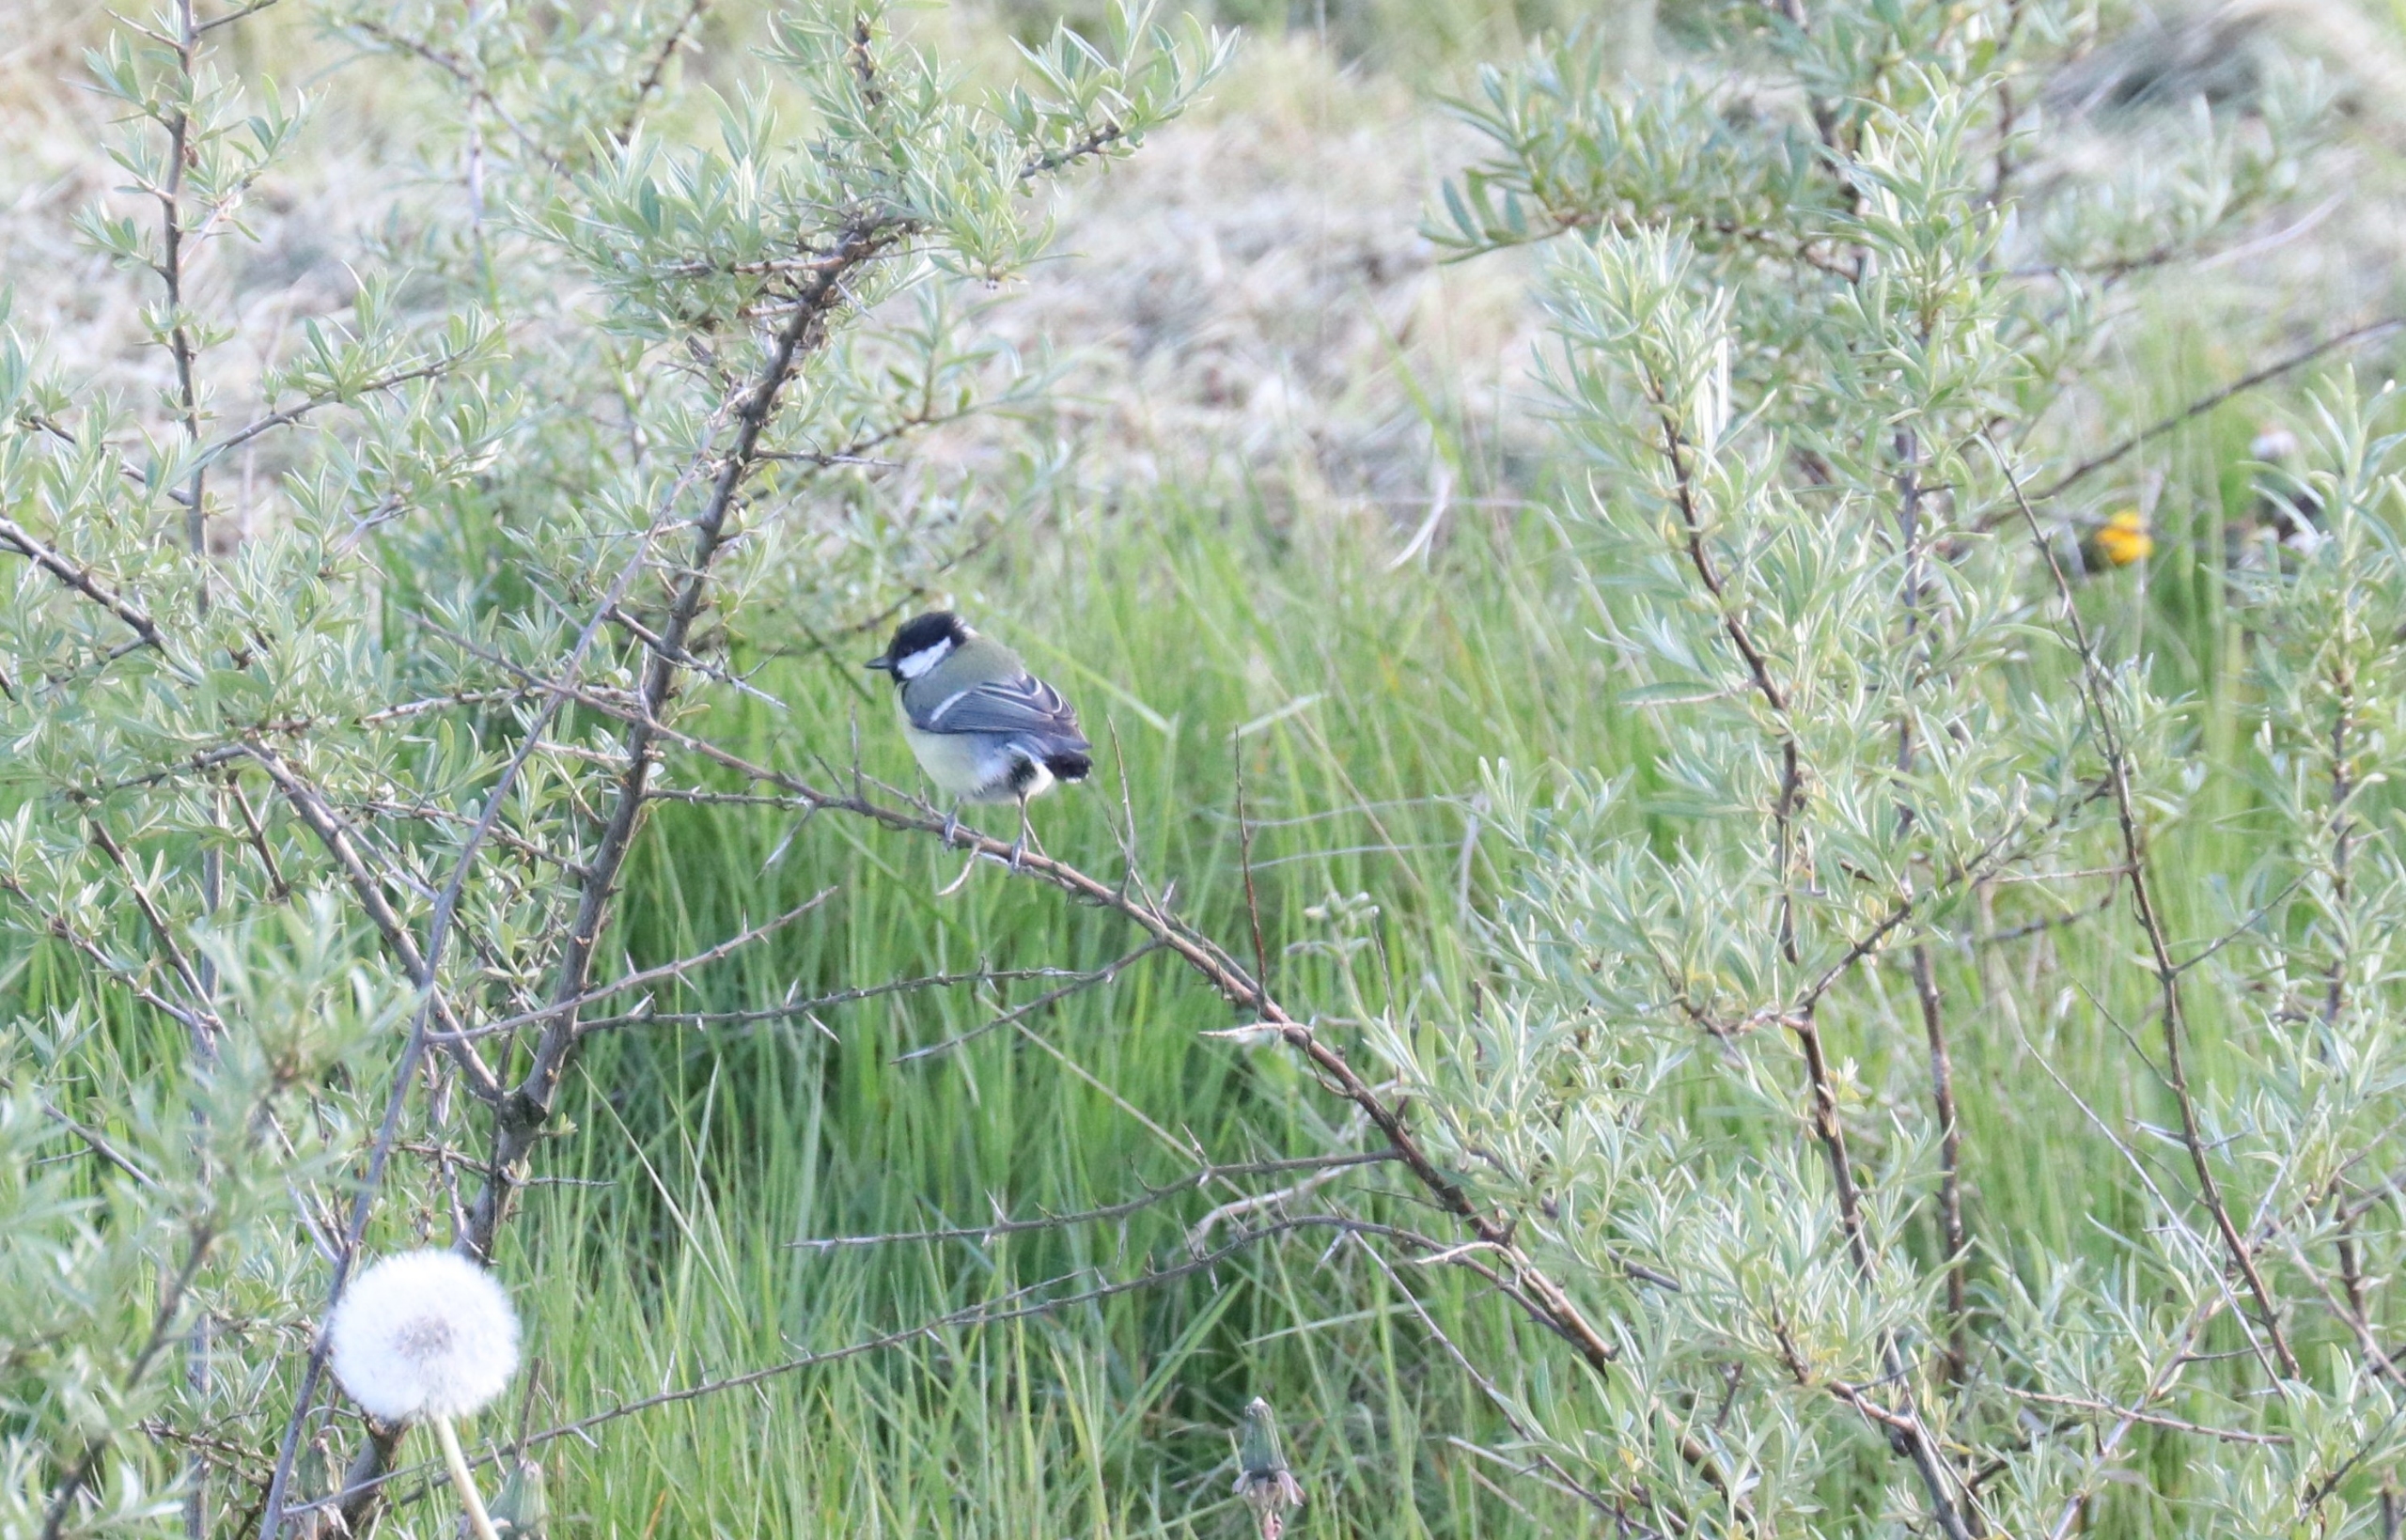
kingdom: Animalia
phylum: Chordata
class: Aves
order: Passeriformes
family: Paridae
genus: Parus
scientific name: Parus major
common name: Musvit
